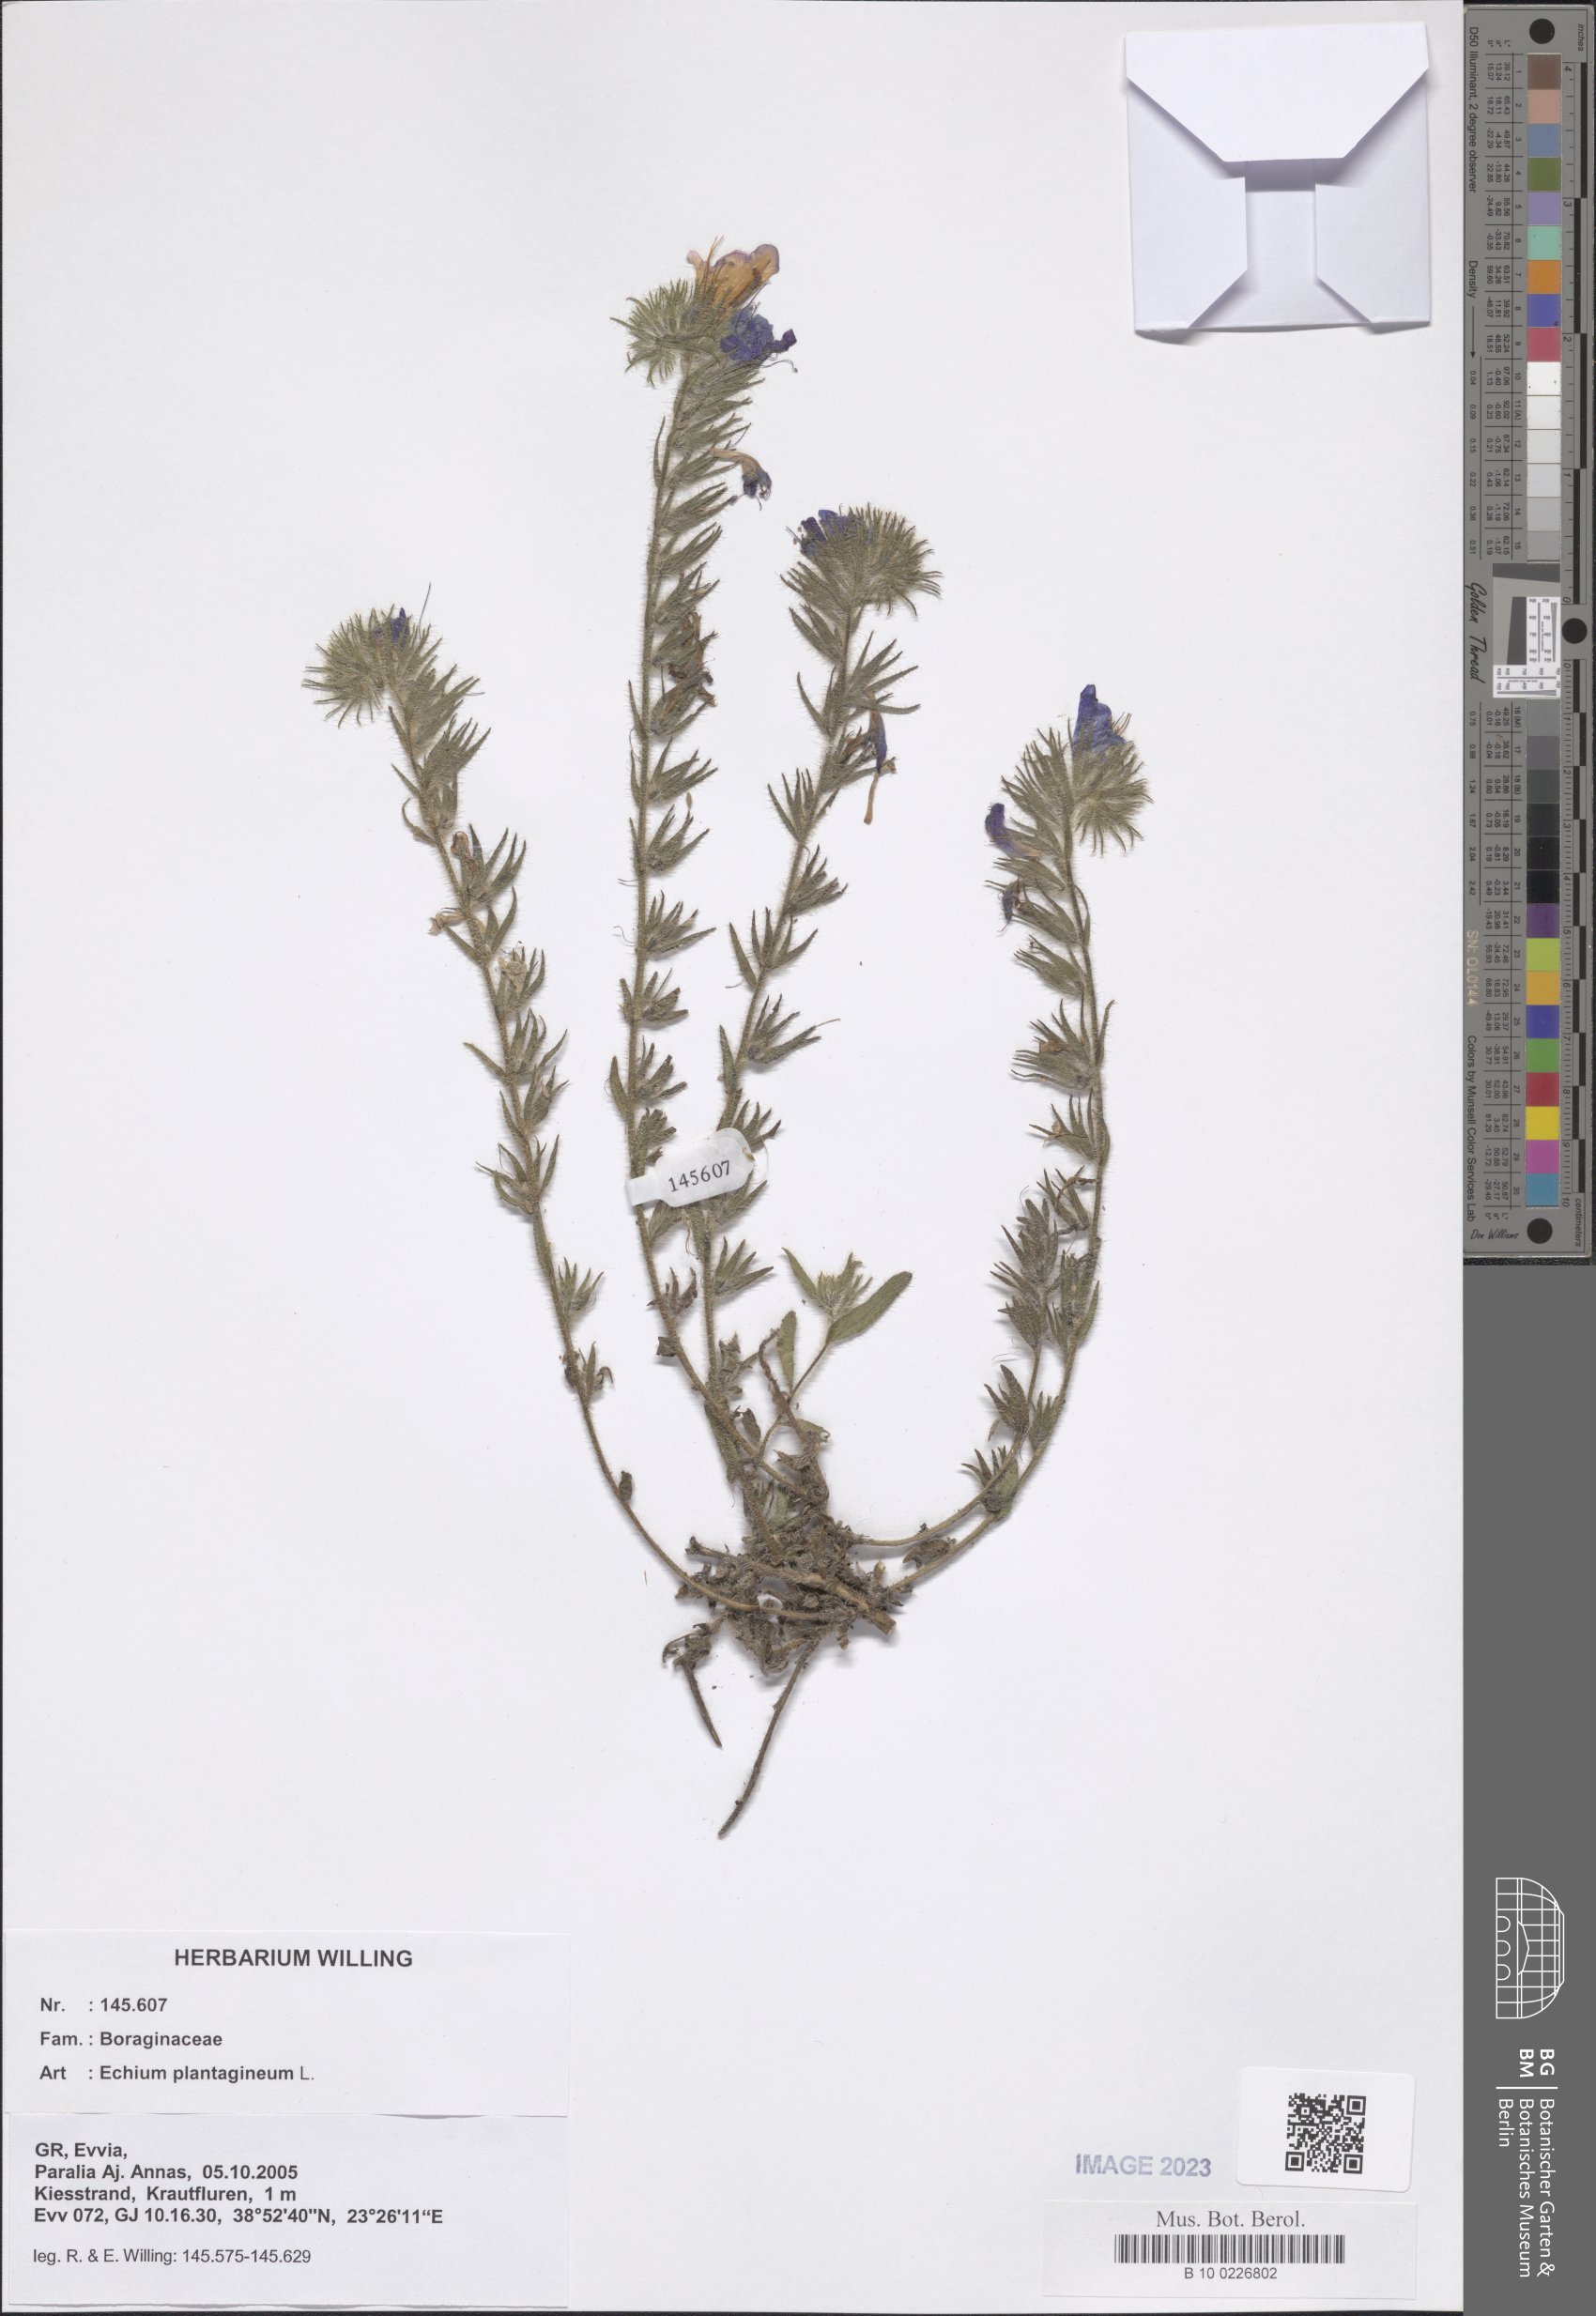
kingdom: Plantae
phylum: Tracheophyta
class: Magnoliopsida
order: Boraginales
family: Boraginaceae
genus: Echium
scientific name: Echium plantagineum
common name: Purple viper's-bugloss
